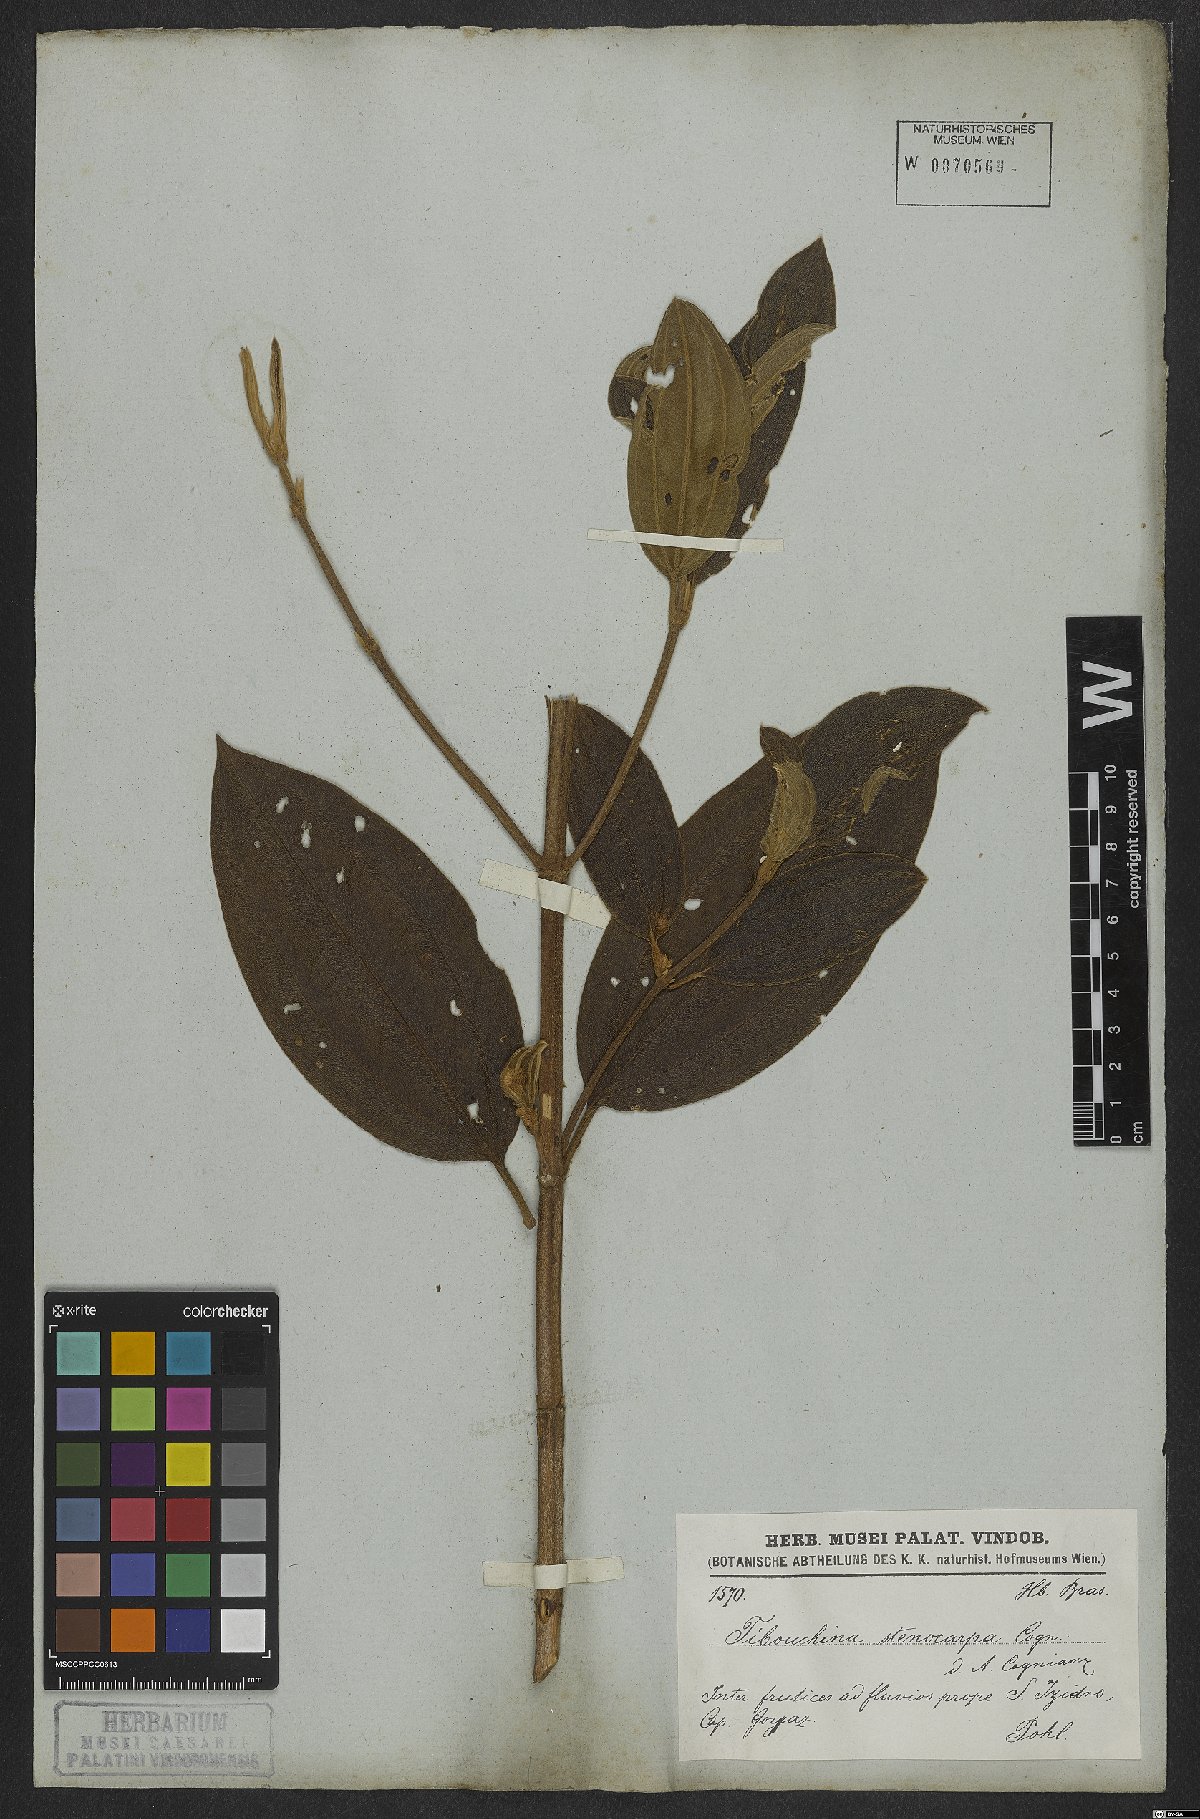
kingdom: Plantae
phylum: Tracheophyta
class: Magnoliopsida
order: Myrtales
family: Melastomataceae
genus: Pleroma
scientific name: Pleroma stenocarpum
